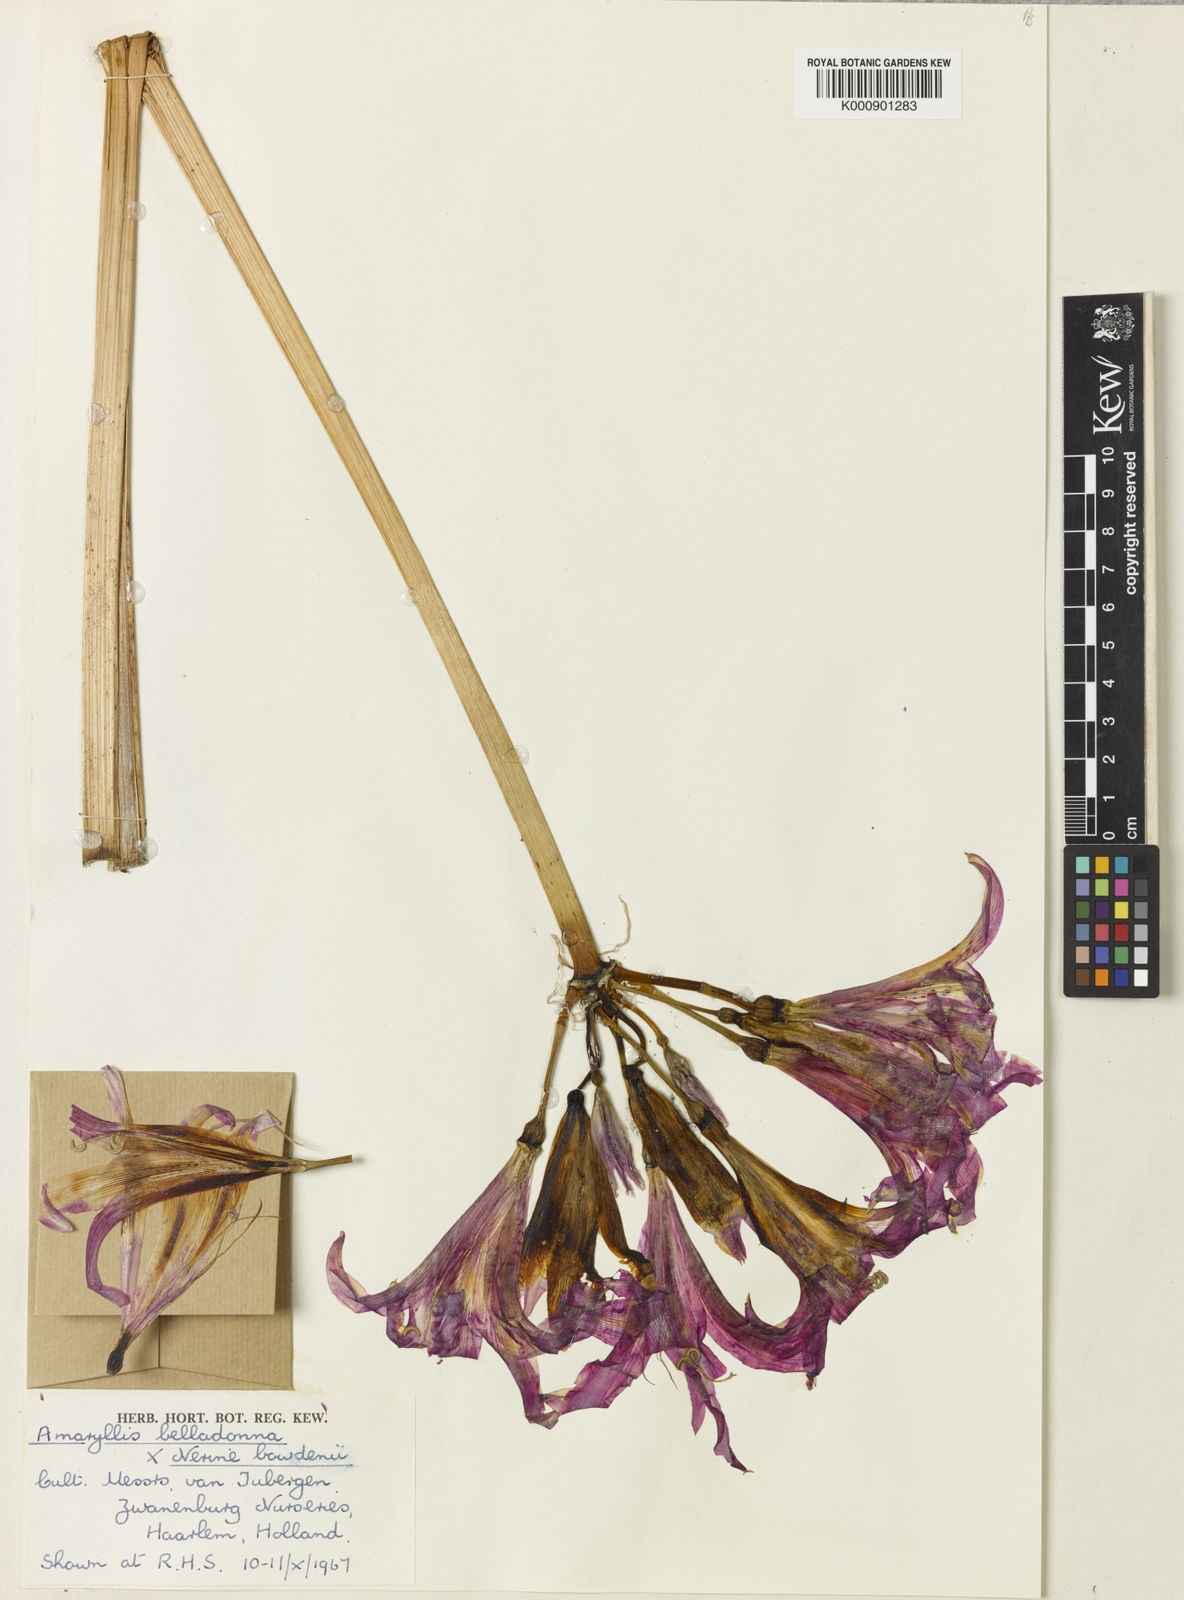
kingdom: Plantae
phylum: Tracheophyta
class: Liliopsida
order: Asparagales
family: Amaryllidaceae
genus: Amarine
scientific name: Amarine tubergenii
